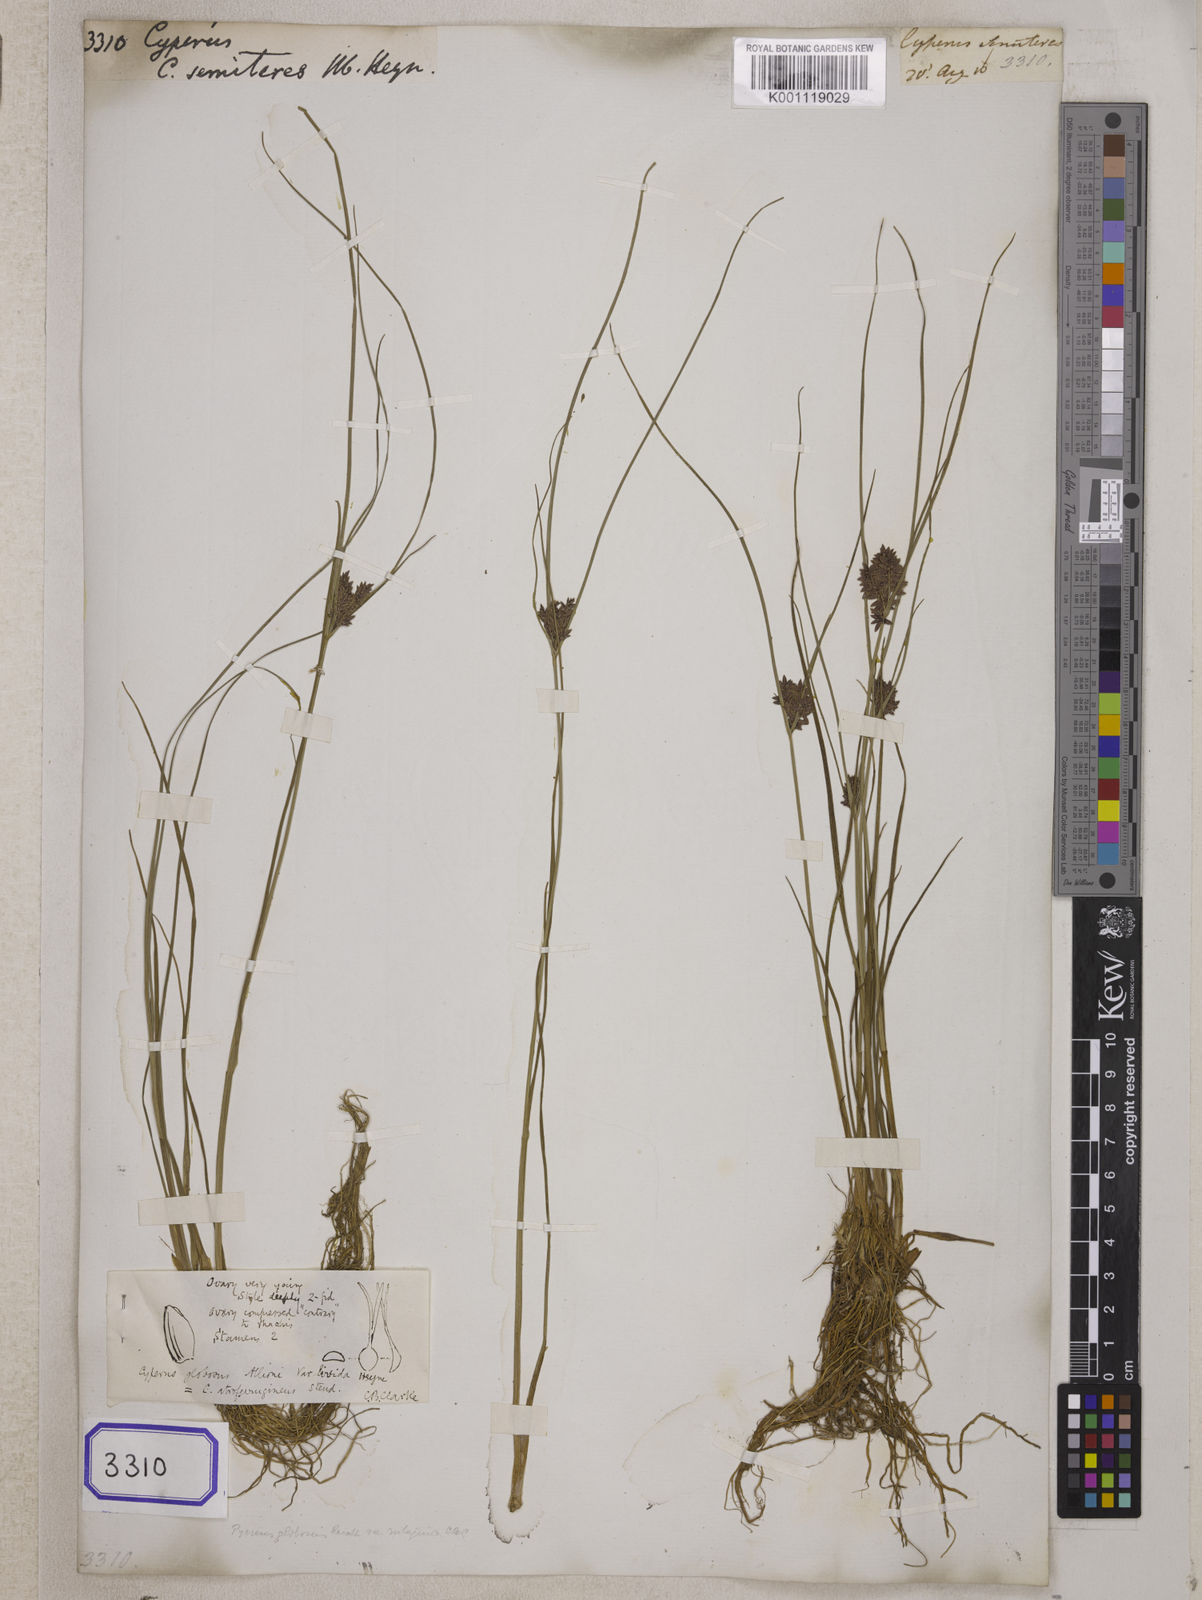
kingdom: Plantae
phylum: Tracheophyta
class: Liliopsida
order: Poales
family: Cyperaceae
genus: Cyperus
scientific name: Cyperus
